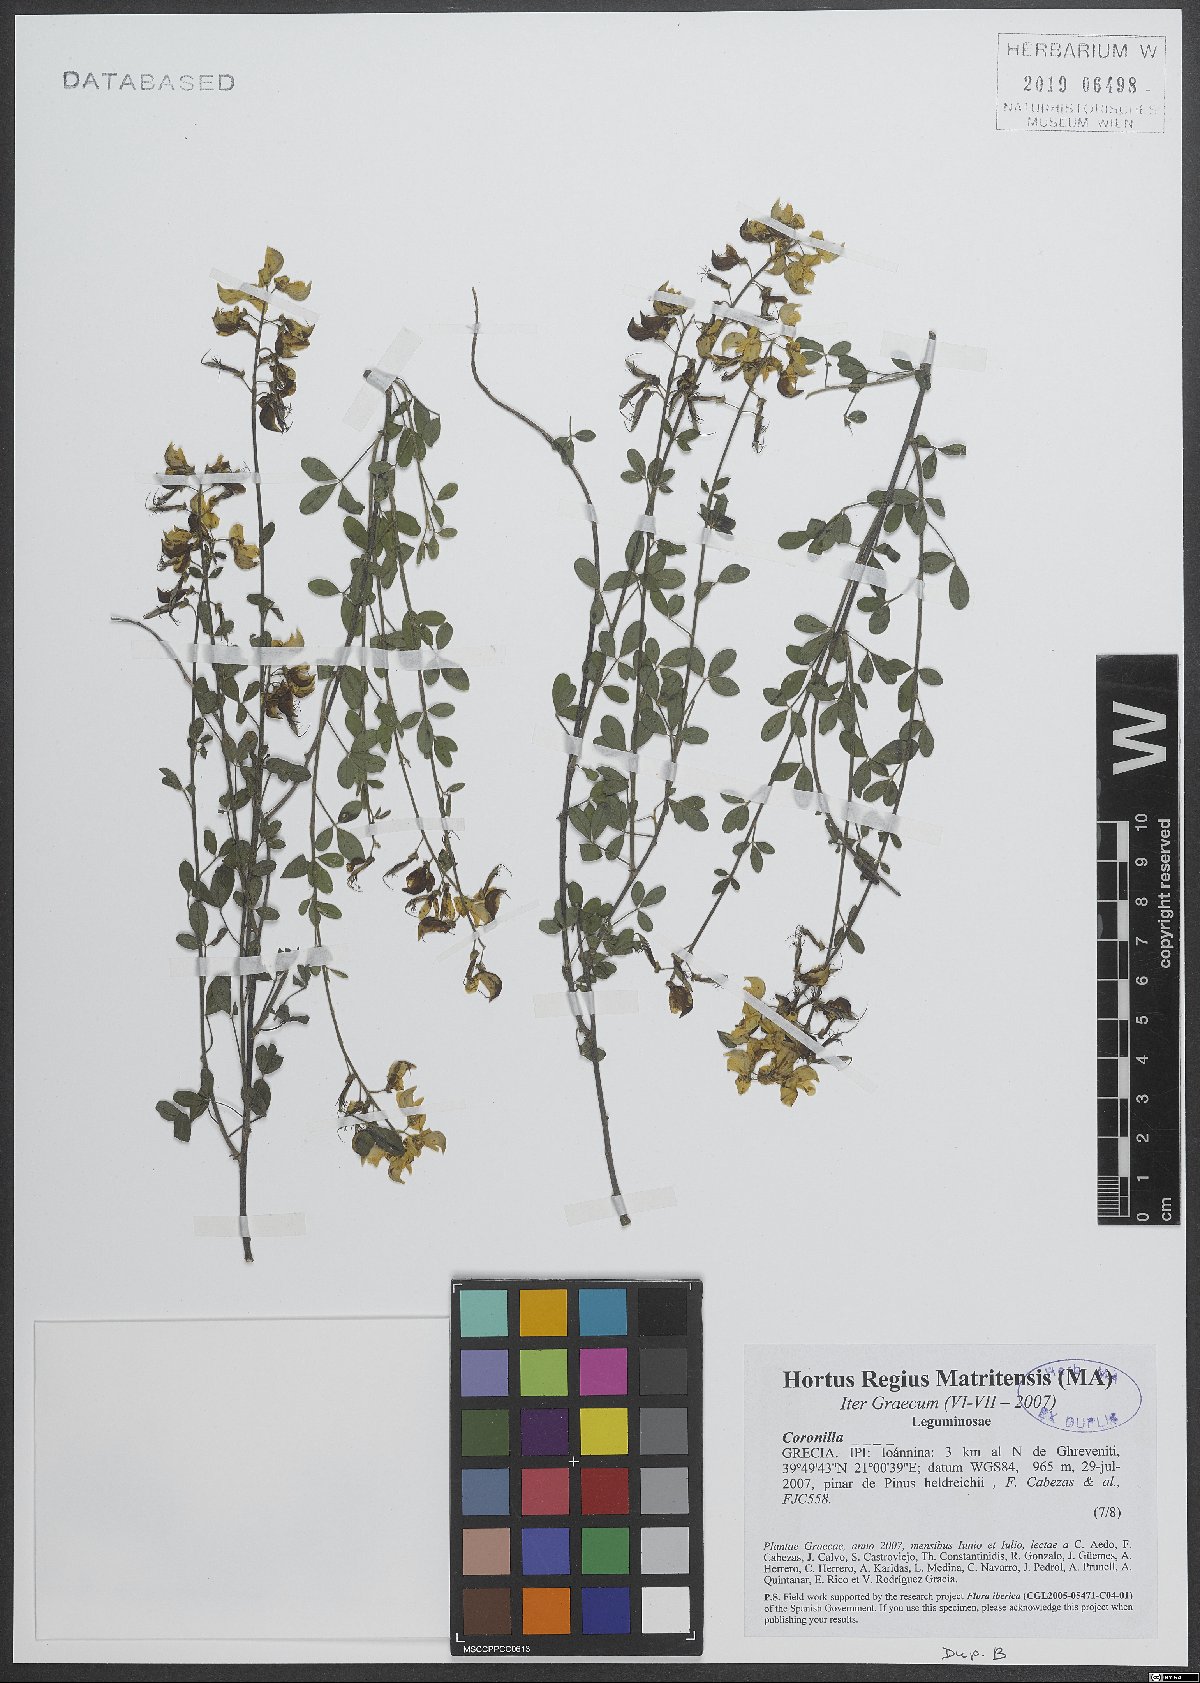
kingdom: Plantae
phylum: Tracheophyta
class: Magnoliopsida
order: Fabales
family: Fabaceae
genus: Coronilla
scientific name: Coronilla
